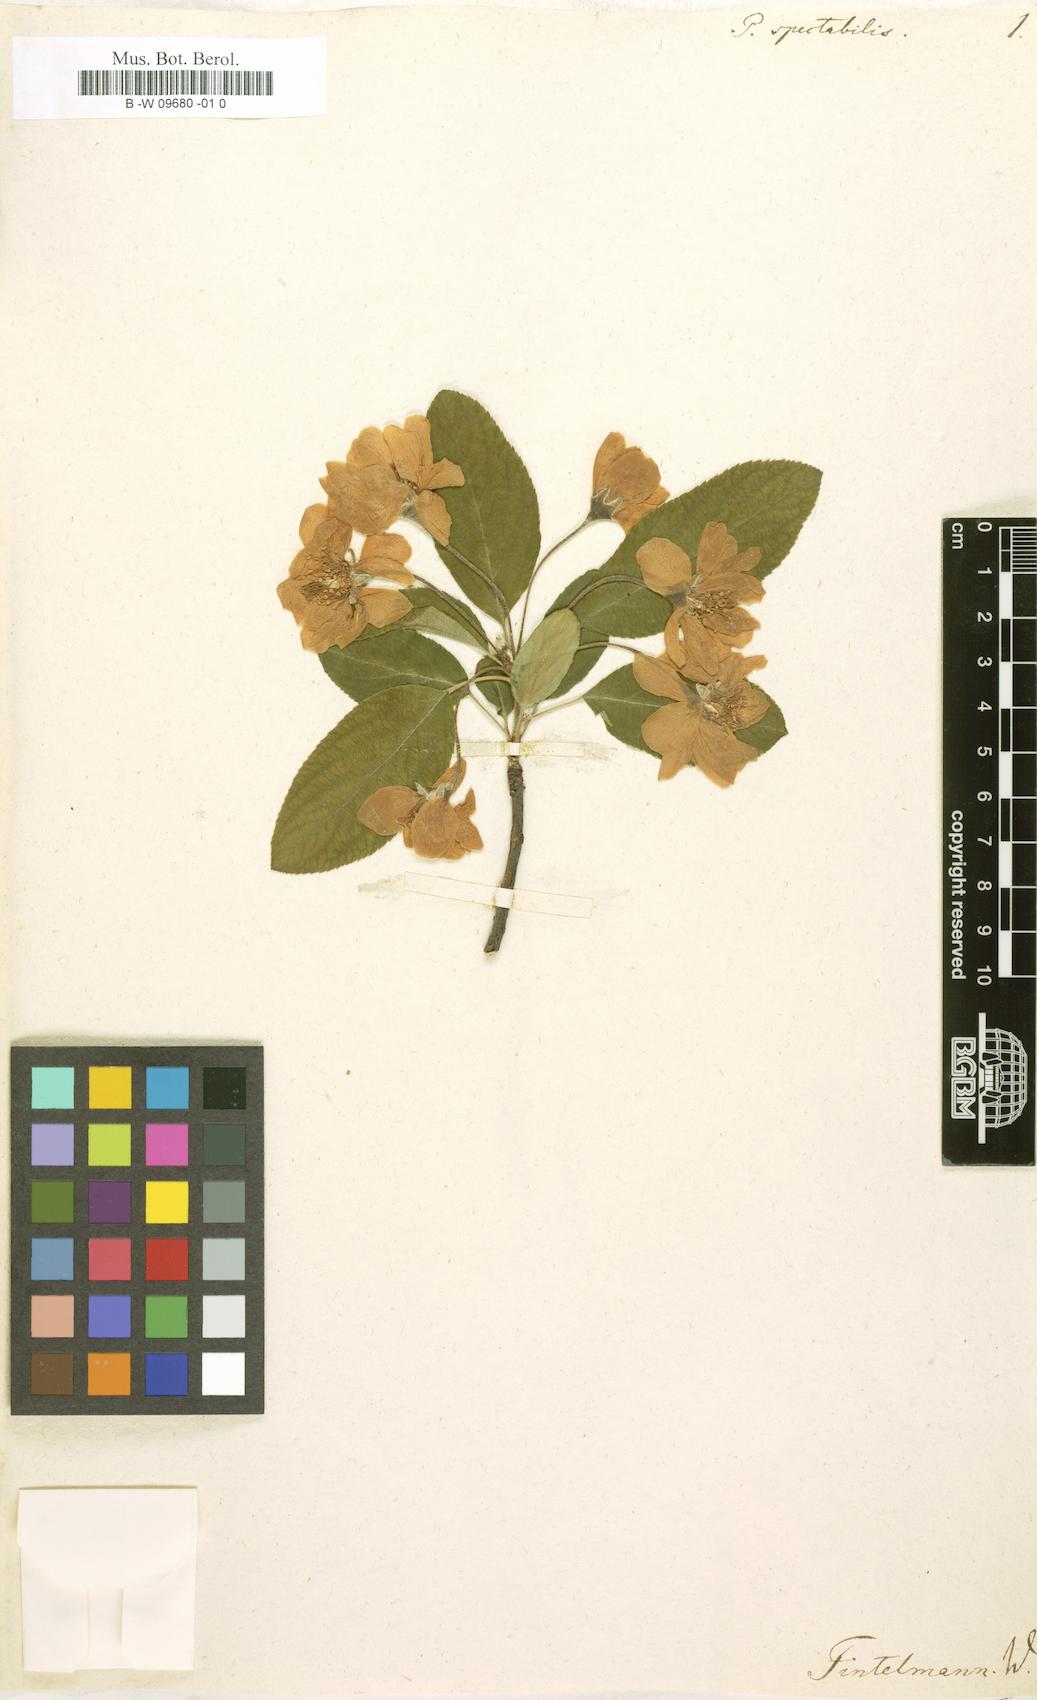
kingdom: Plantae
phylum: Tracheophyta
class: Magnoliopsida
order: Rosales
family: Rosaceae
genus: Malus
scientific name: Malus spectabilis
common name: Asiatic apple
